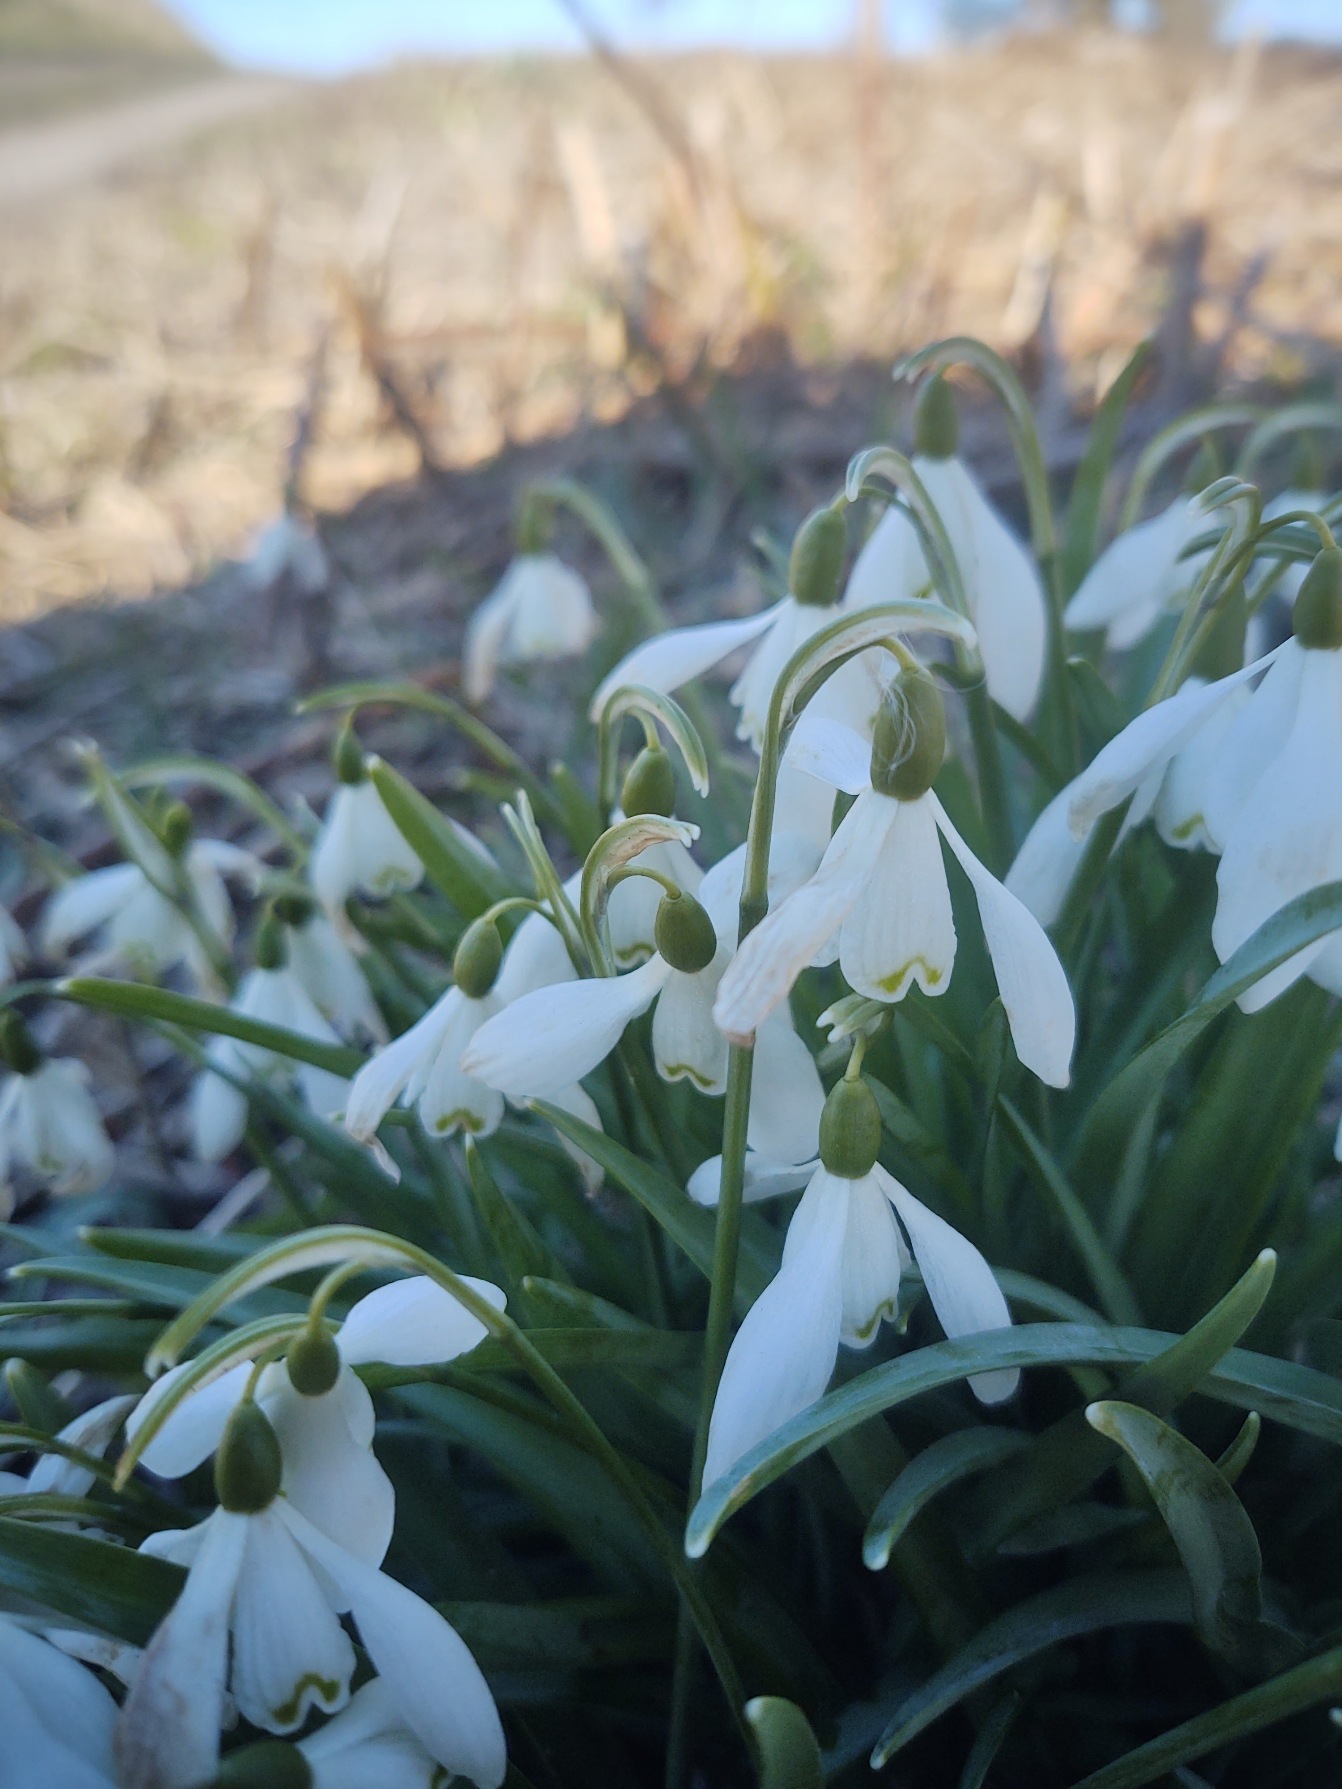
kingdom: Plantae
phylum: Tracheophyta
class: Liliopsida
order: Asparagales
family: Amaryllidaceae
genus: Galanthus
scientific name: Galanthus nivalis
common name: Vintergæk
